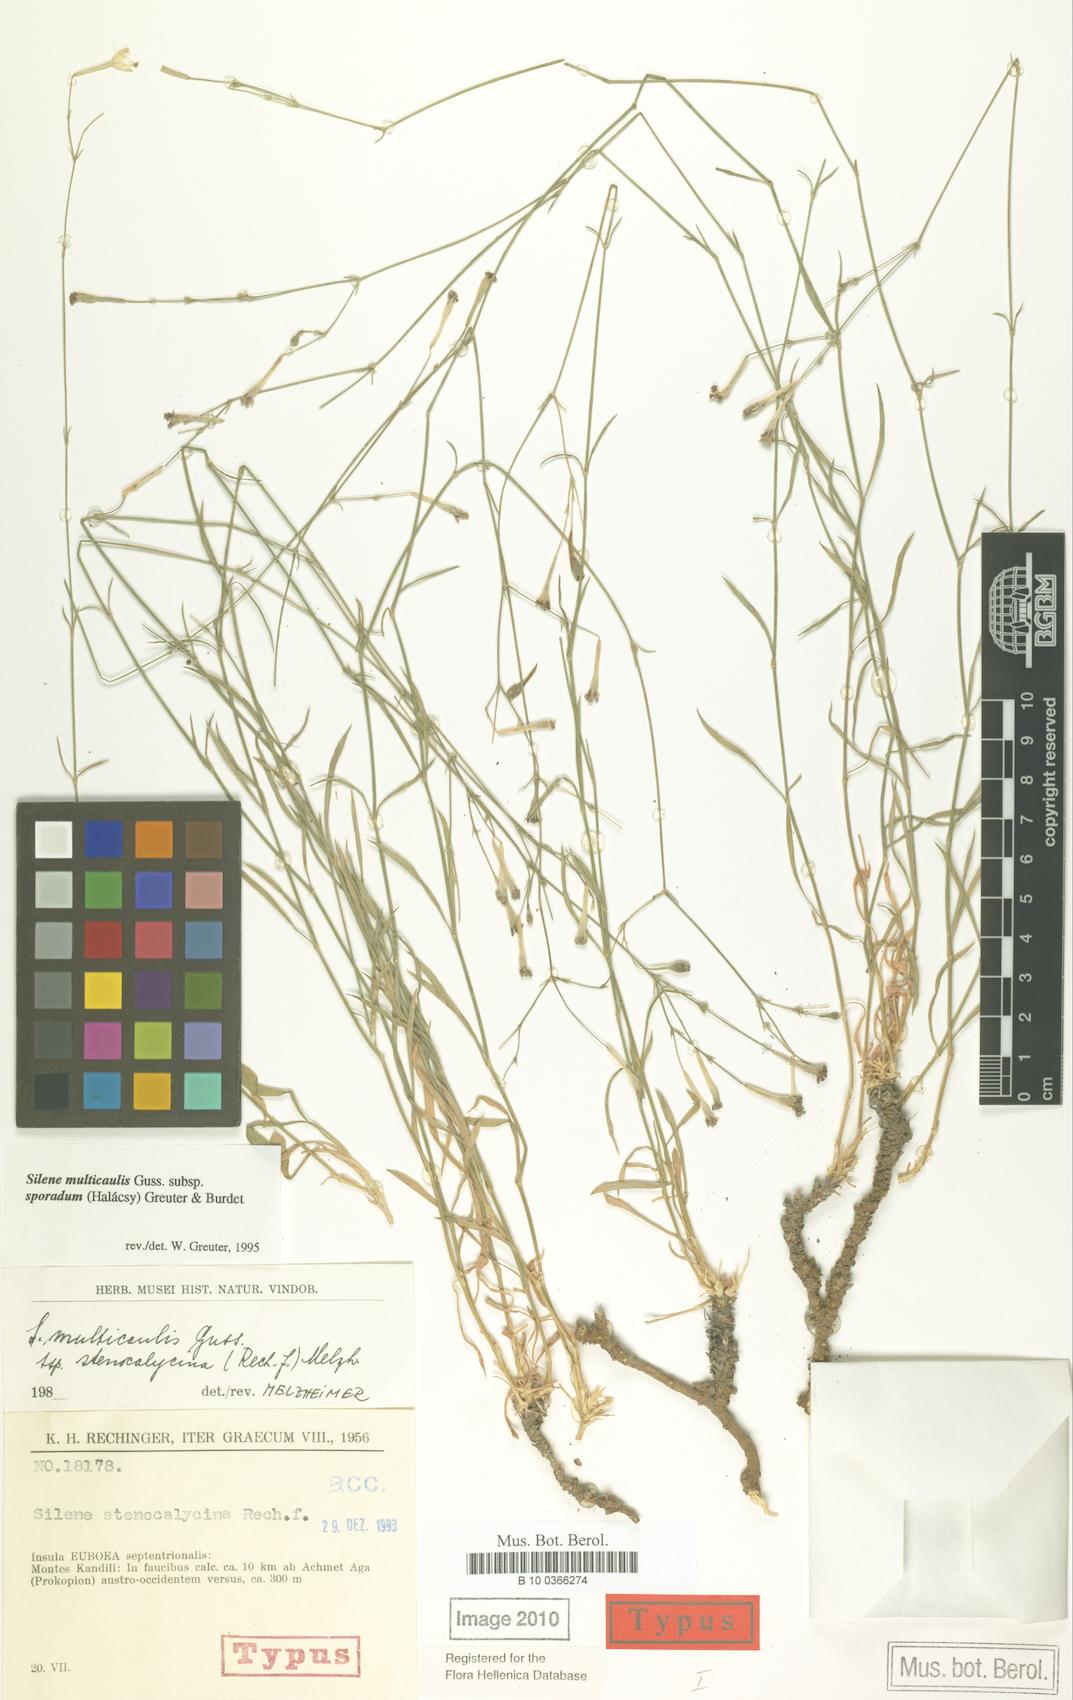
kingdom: Plantae
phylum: Tracheophyta
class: Magnoliopsida
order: Caryophyllales
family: Caryophyllaceae
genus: Silene
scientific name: Silene multicaulis
